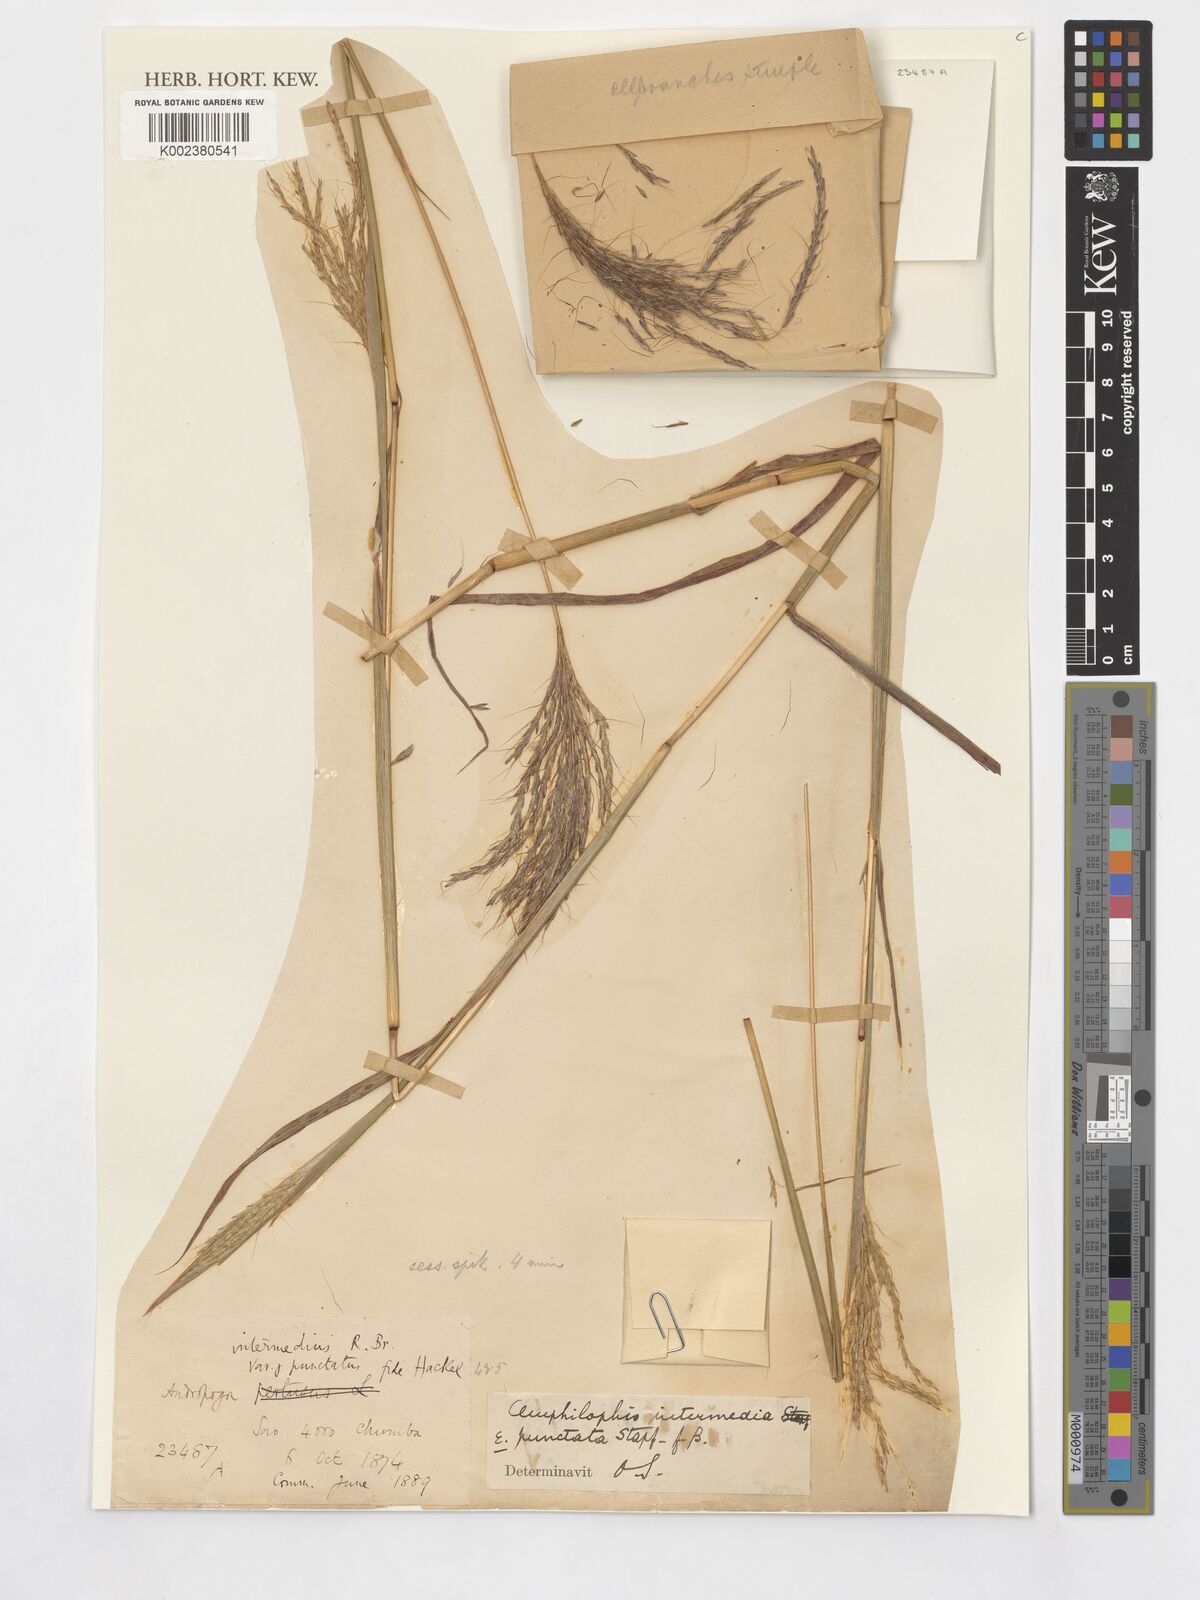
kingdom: Plantae
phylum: Tracheophyta
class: Liliopsida
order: Poales
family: Poaceae
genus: Bothriochloa
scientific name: Bothriochloa bladhii
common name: Caucasian bluestem
